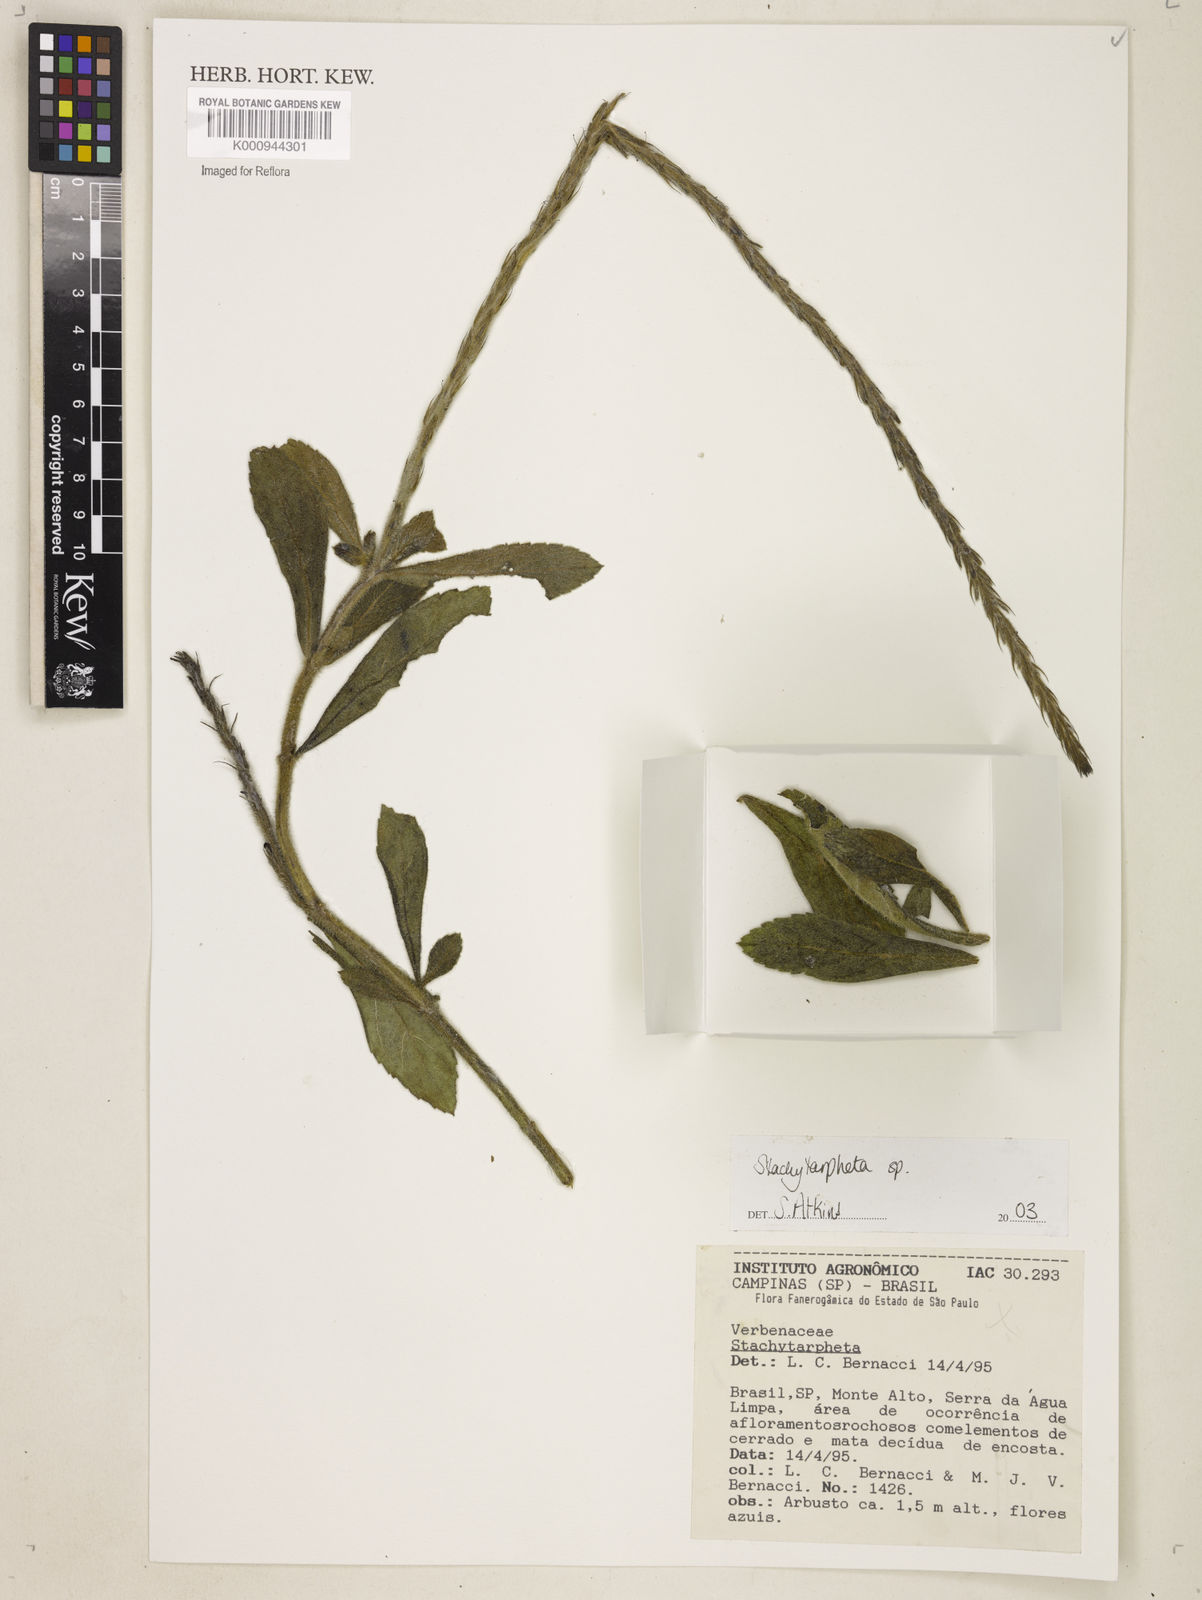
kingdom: Plantae
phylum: Tracheophyta
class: Magnoliopsida
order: Lamiales
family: Verbenaceae
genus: Stachytarpheta
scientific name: Stachytarpheta
